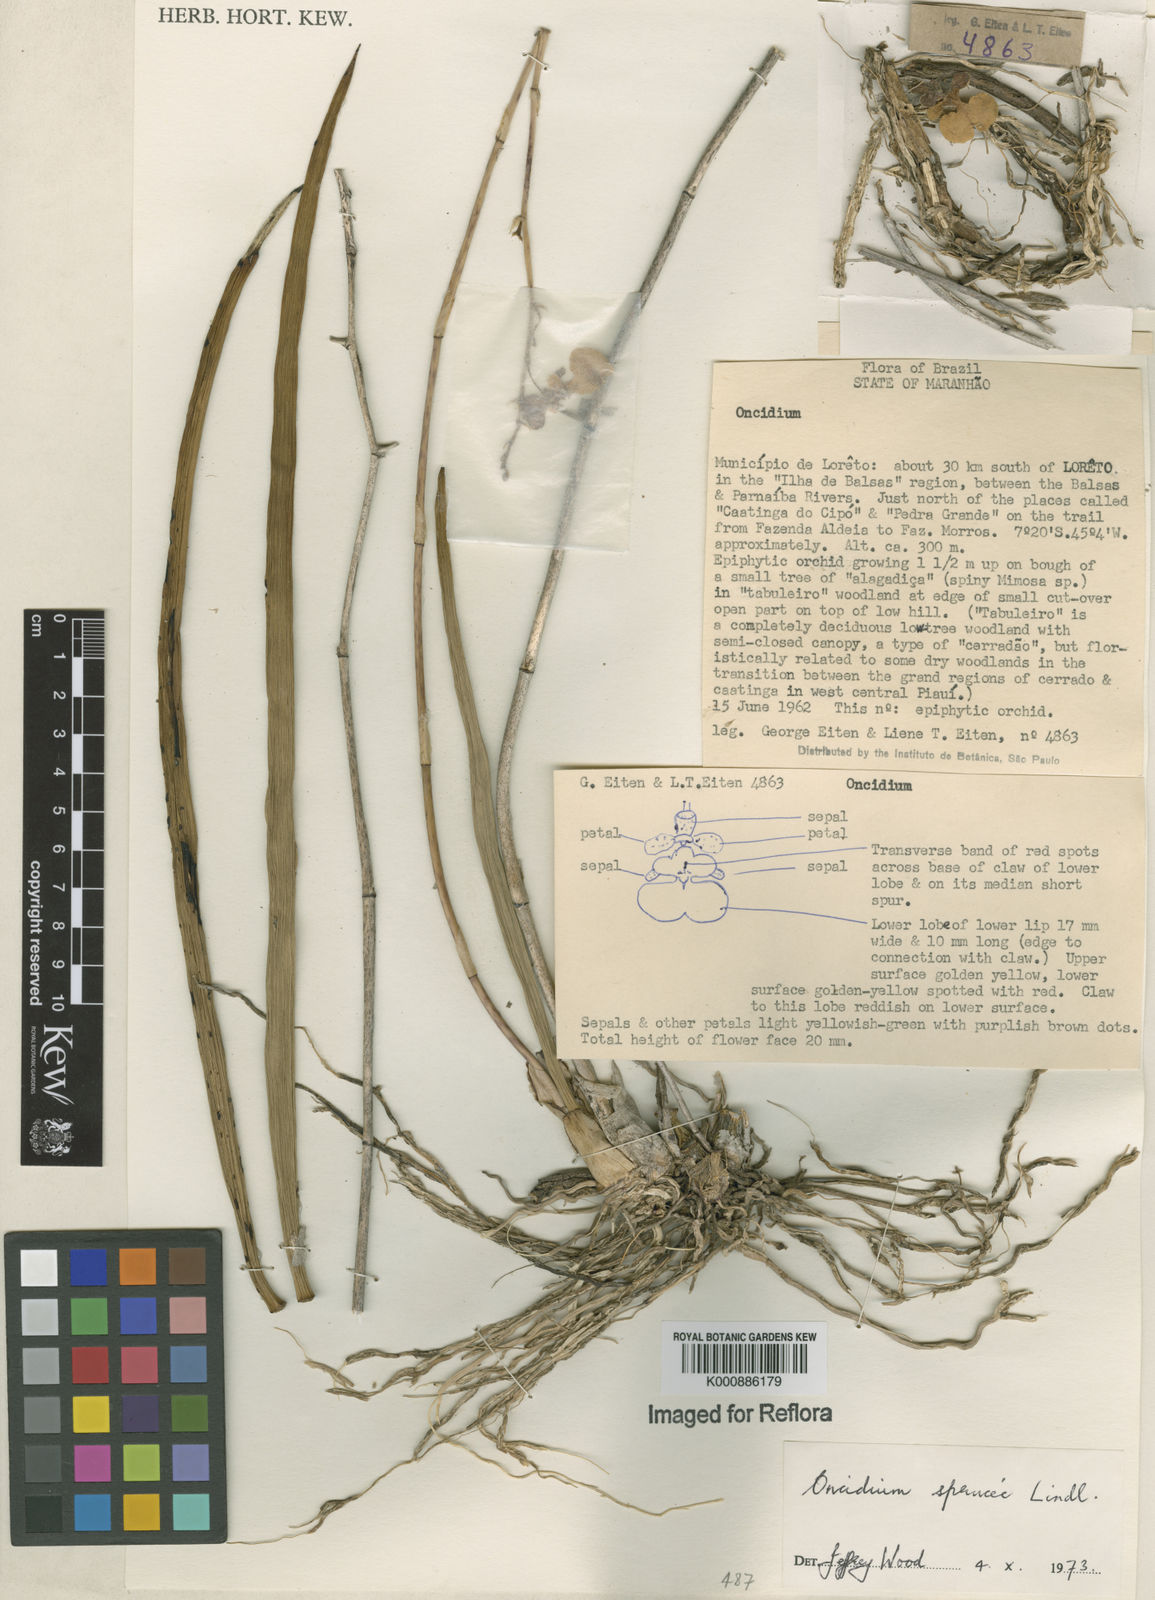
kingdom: Plantae
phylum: Tracheophyta
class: Liliopsida
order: Asparagales
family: Orchidaceae
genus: Trichocentrum
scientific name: Trichocentrum cebolleta
